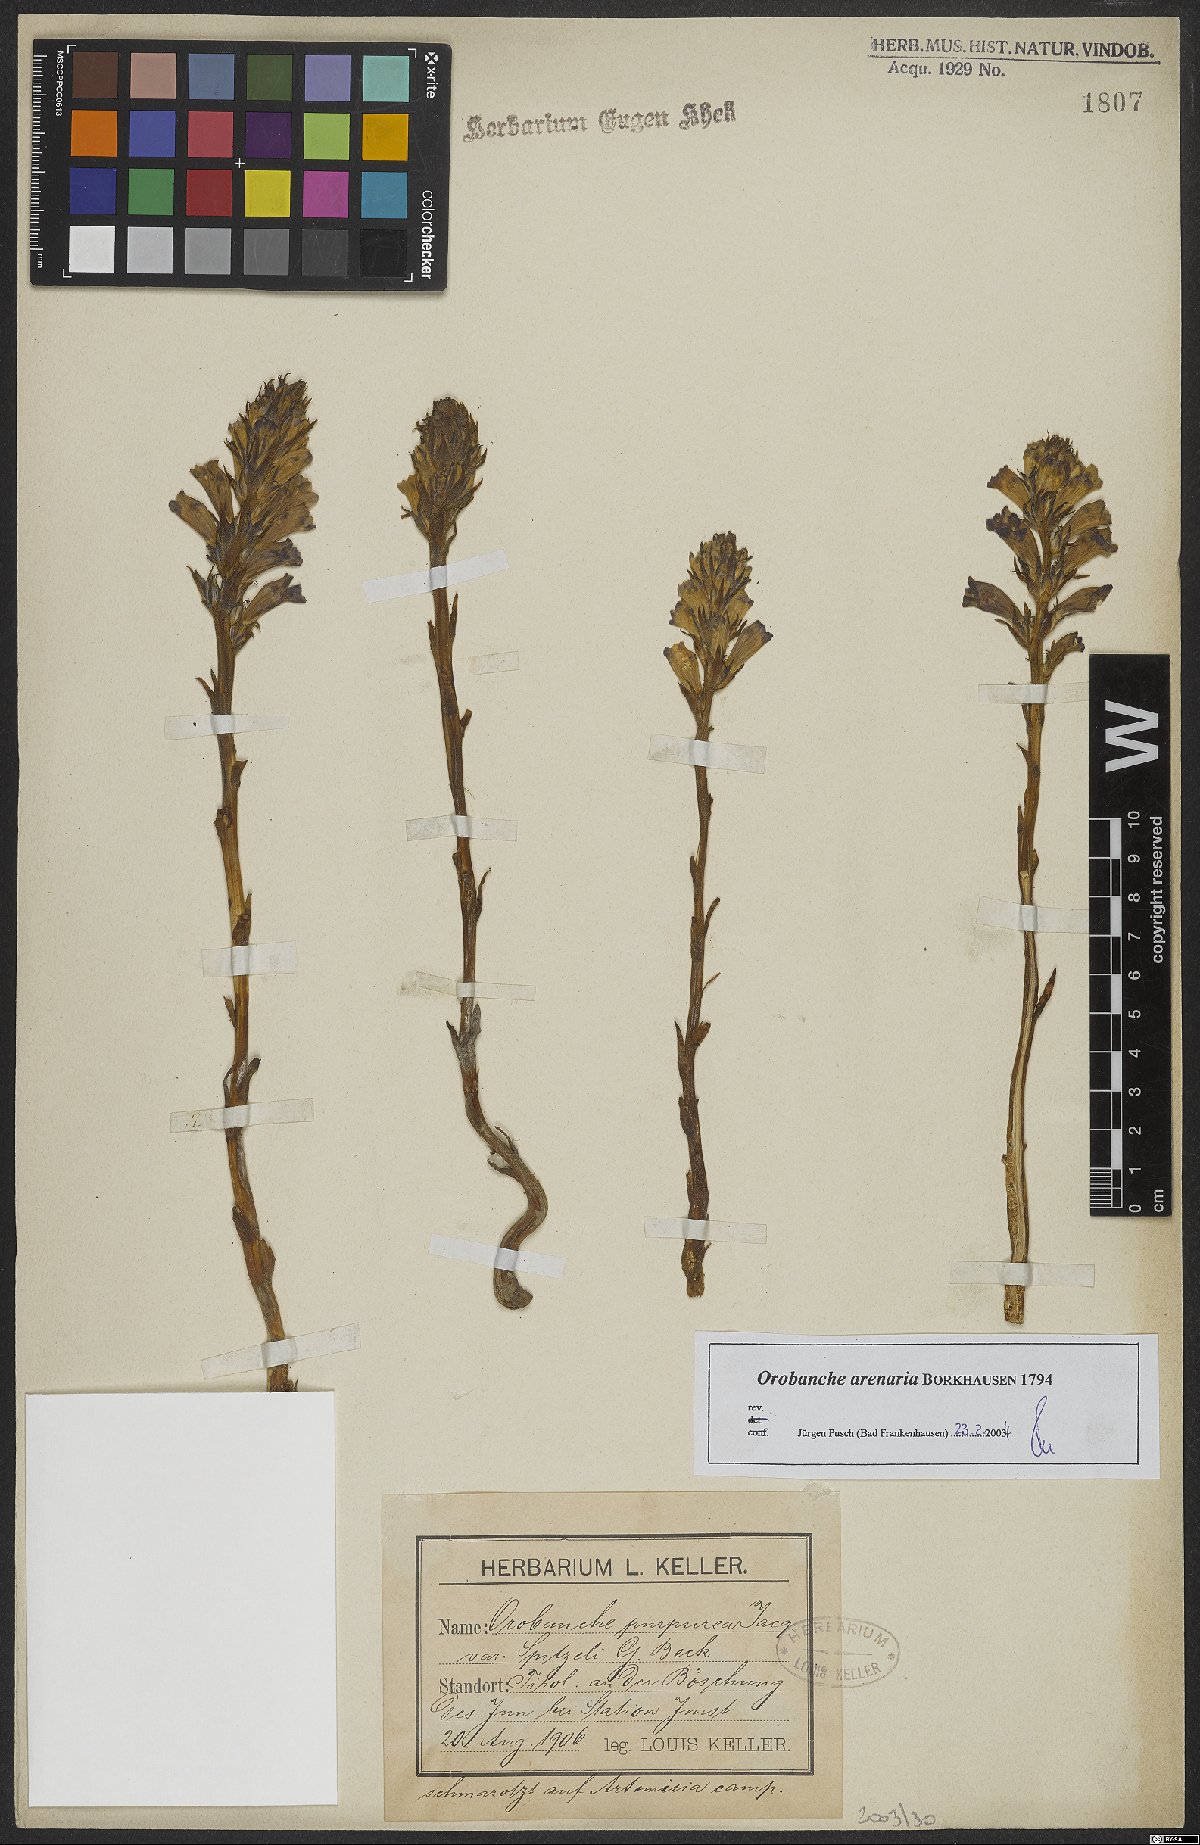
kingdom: Plantae
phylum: Tracheophyta
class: Magnoliopsida
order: Lamiales
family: Orobanchaceae
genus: Phelipanche
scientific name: Phelipanche arenaria
